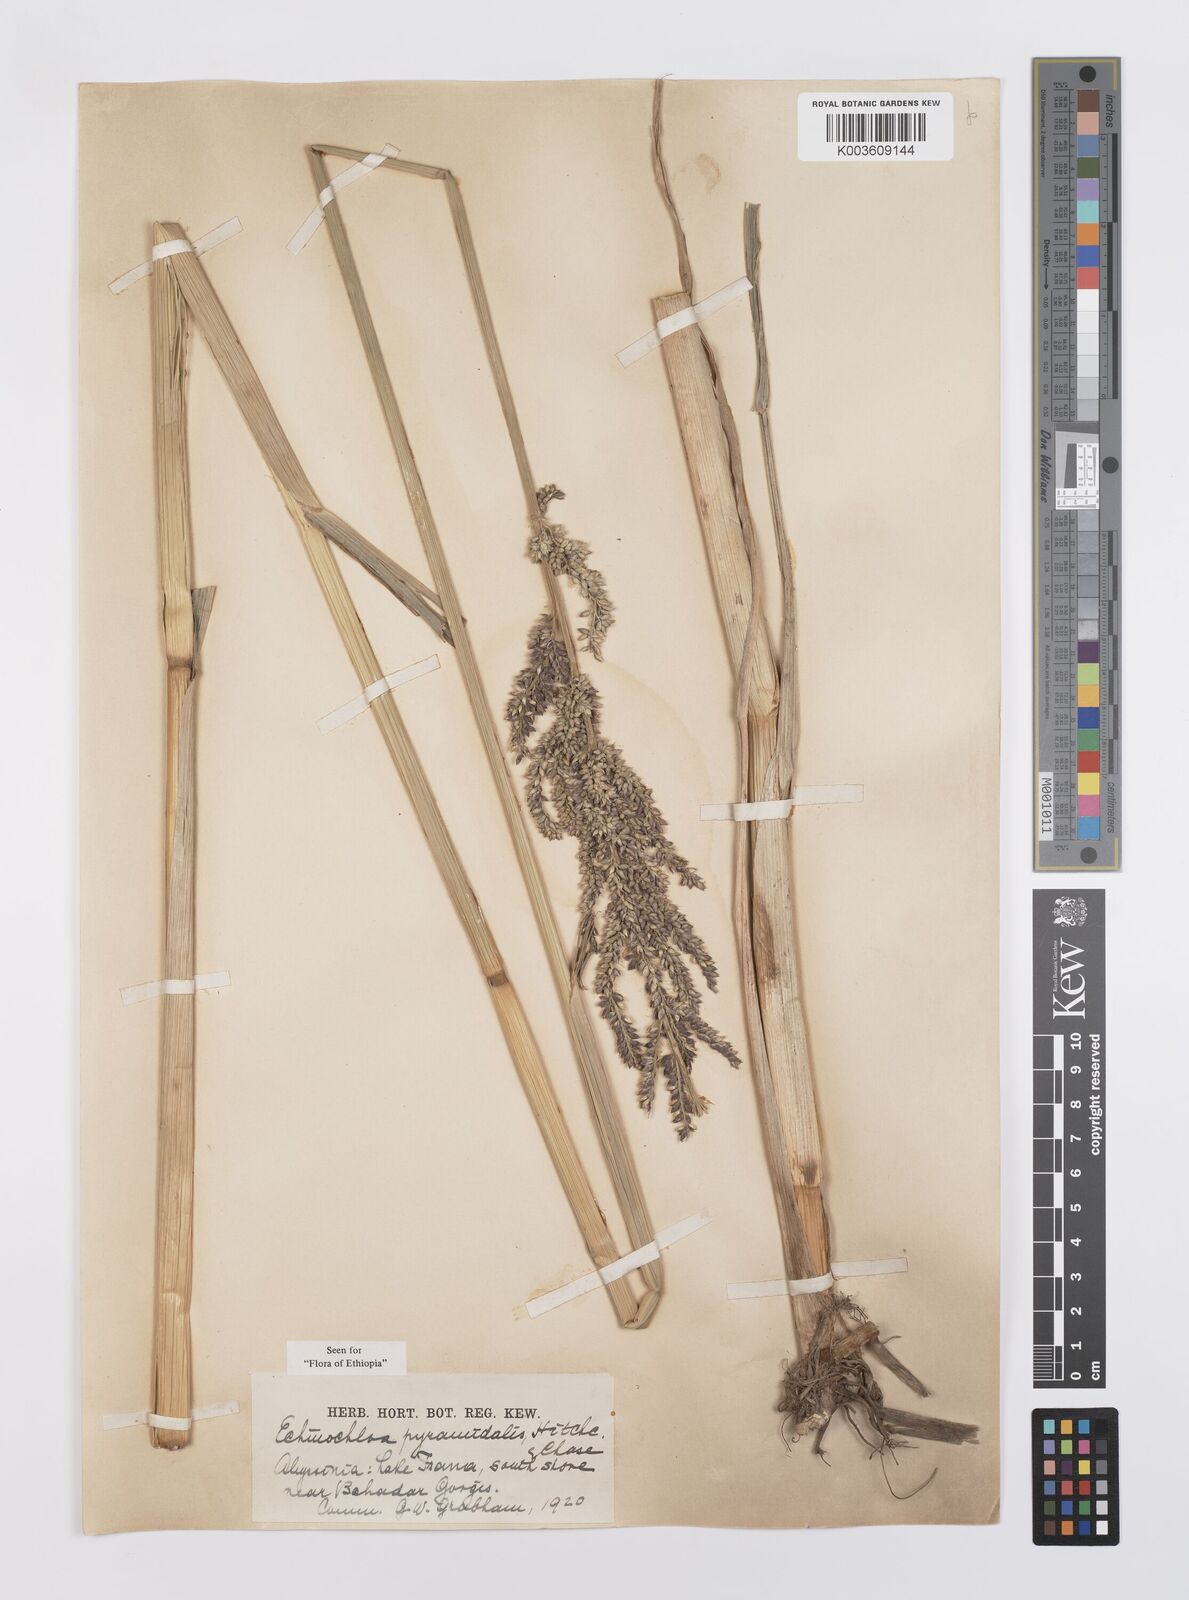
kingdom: Plantae
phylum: Tracheophyta
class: Liliopsida
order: Poales
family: Poaceae
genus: Echinochloa
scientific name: Echinochloa pyramidalis
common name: Antelope grass
